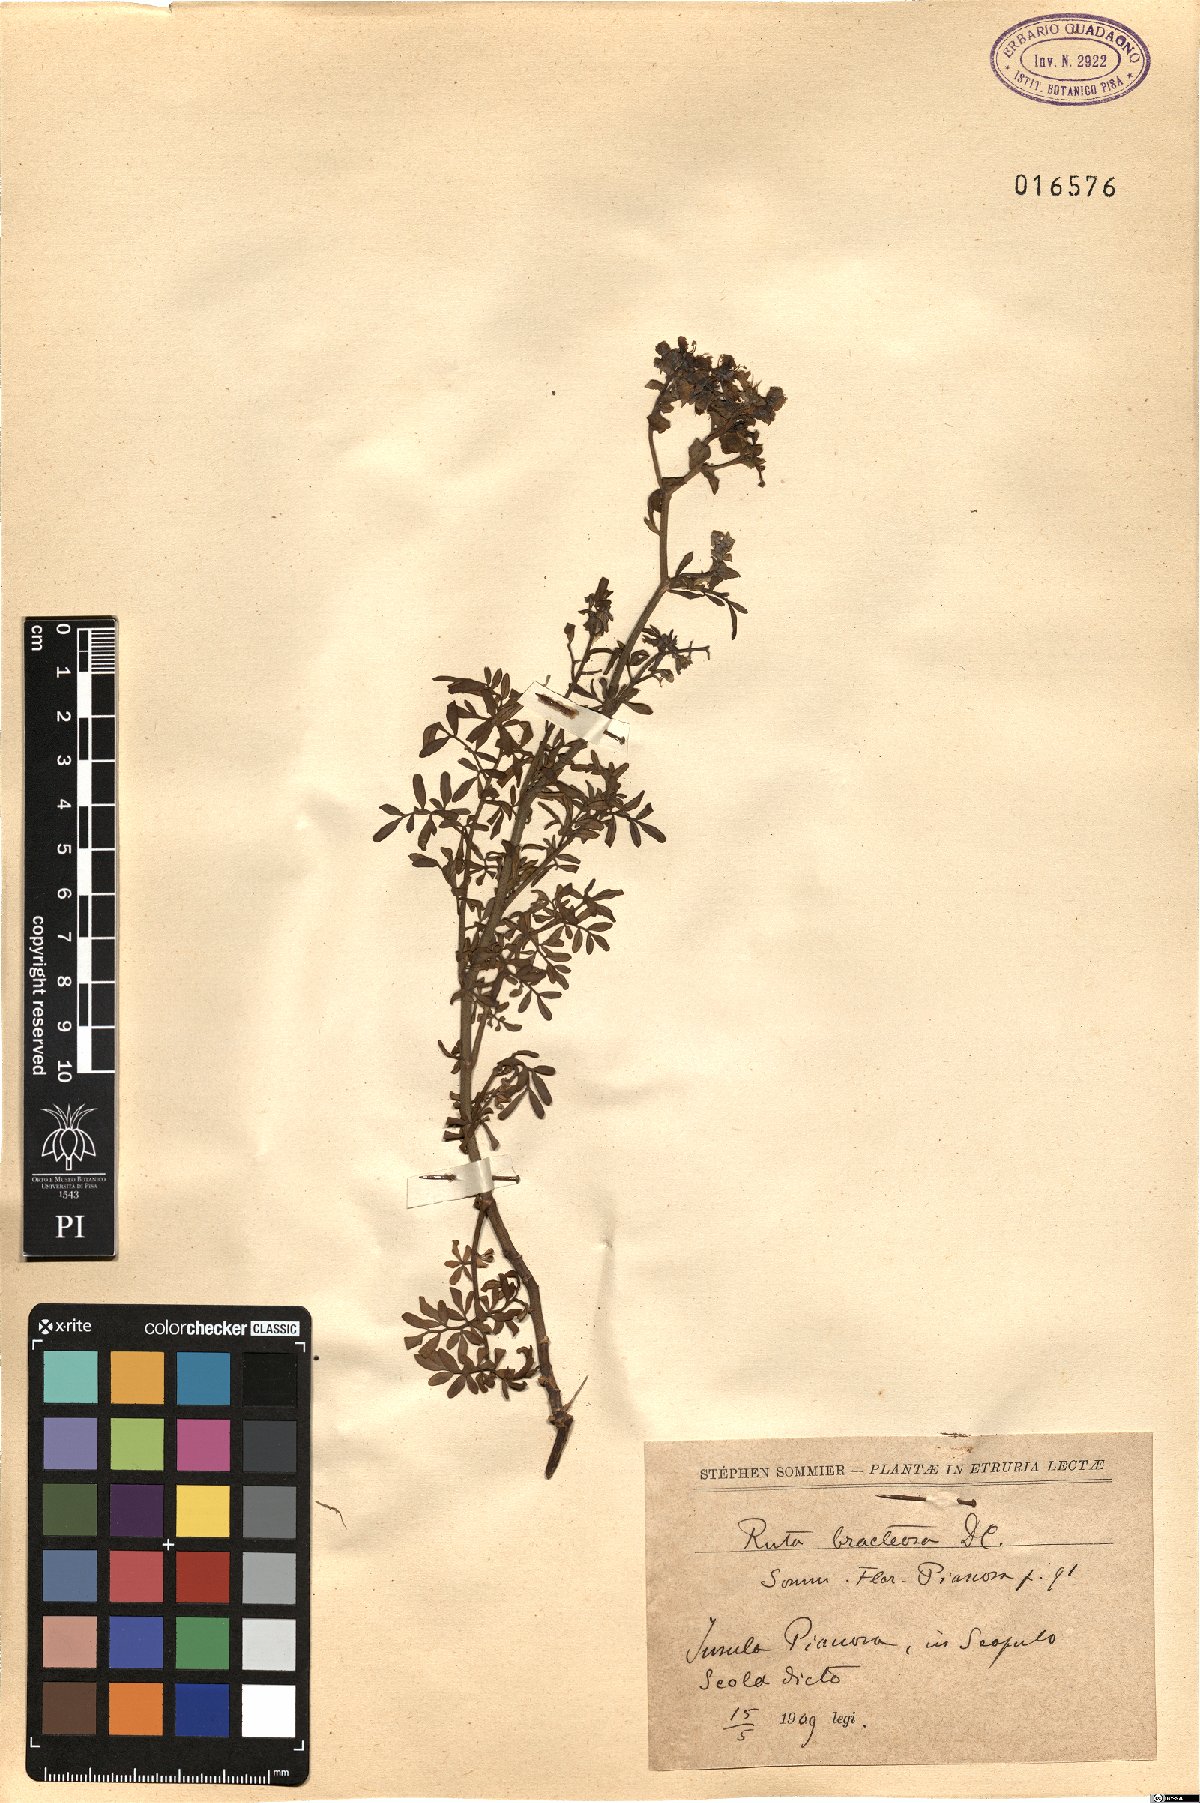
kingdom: Plantae
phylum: Tracheophyta
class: Magnoliopsida
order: Sapindales
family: Rutaceae
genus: Ruta
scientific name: Ruta chalepensis
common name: Fringed rue
